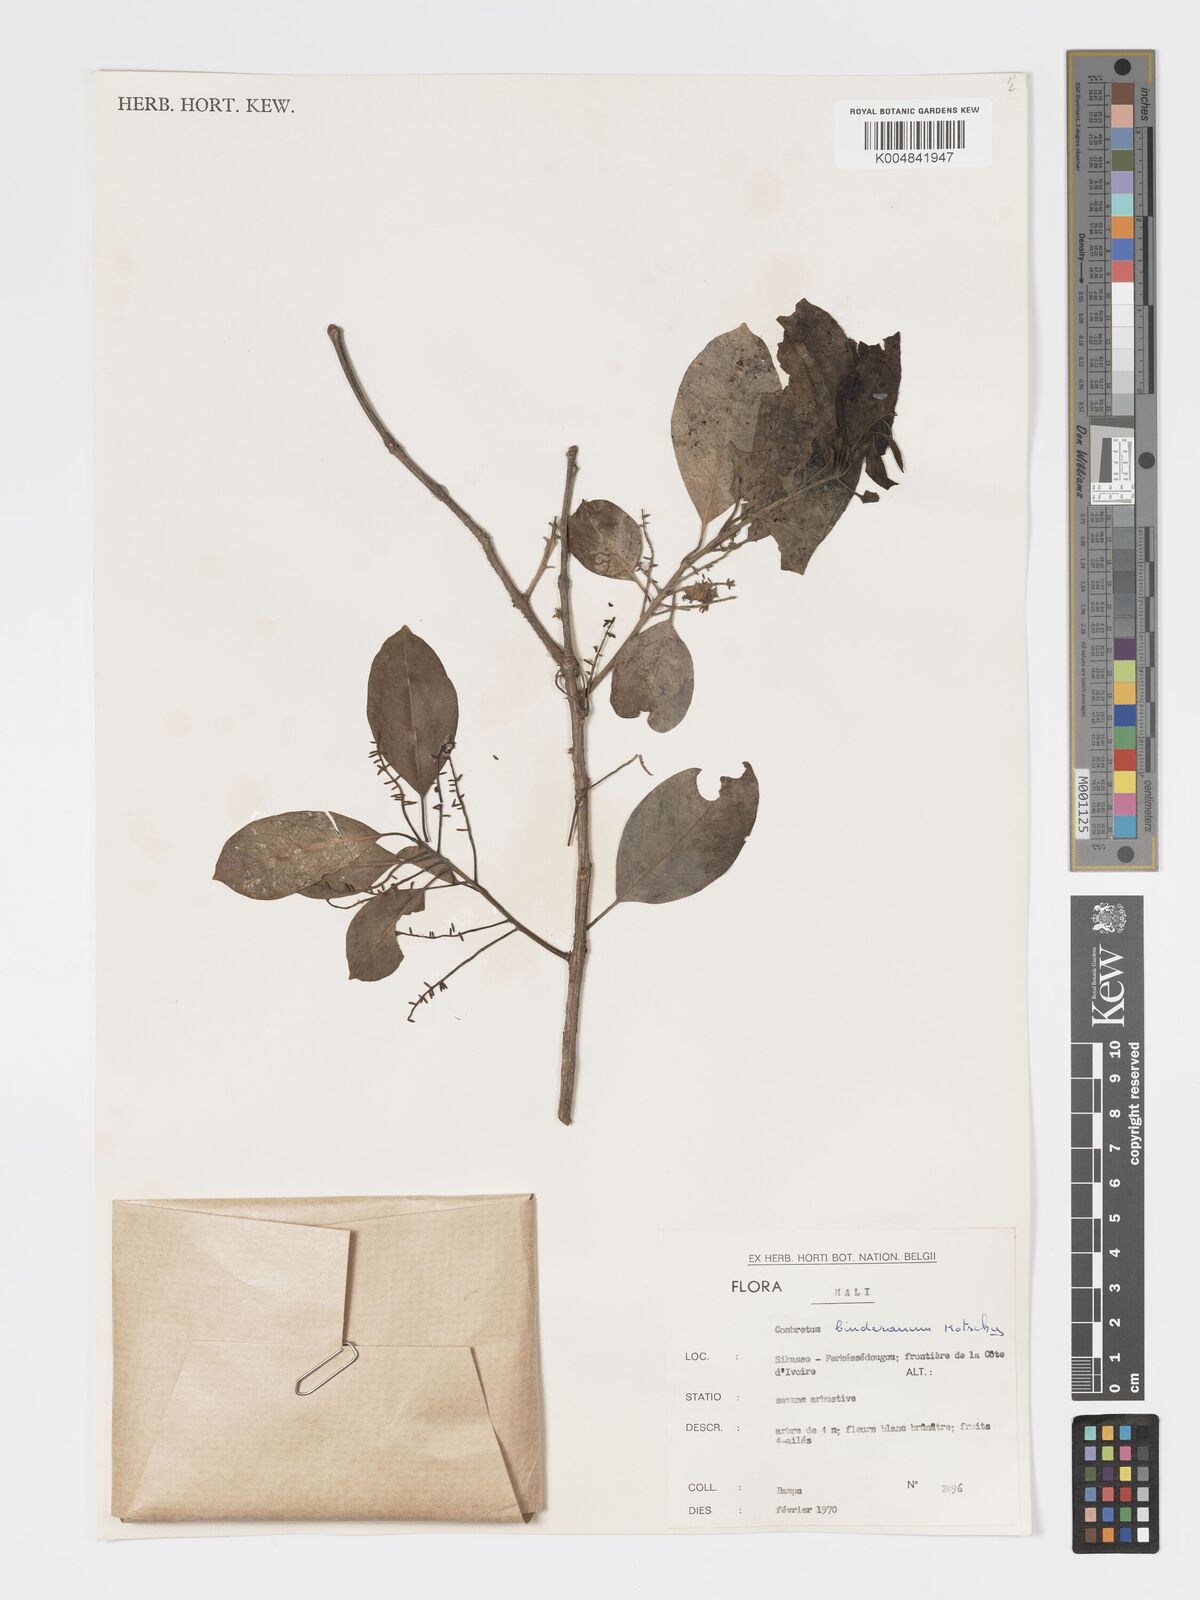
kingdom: Plantae
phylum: Tracheophyta
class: Magnoliopsida
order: Myrtales
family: Combretaceae
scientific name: Combretaceae
